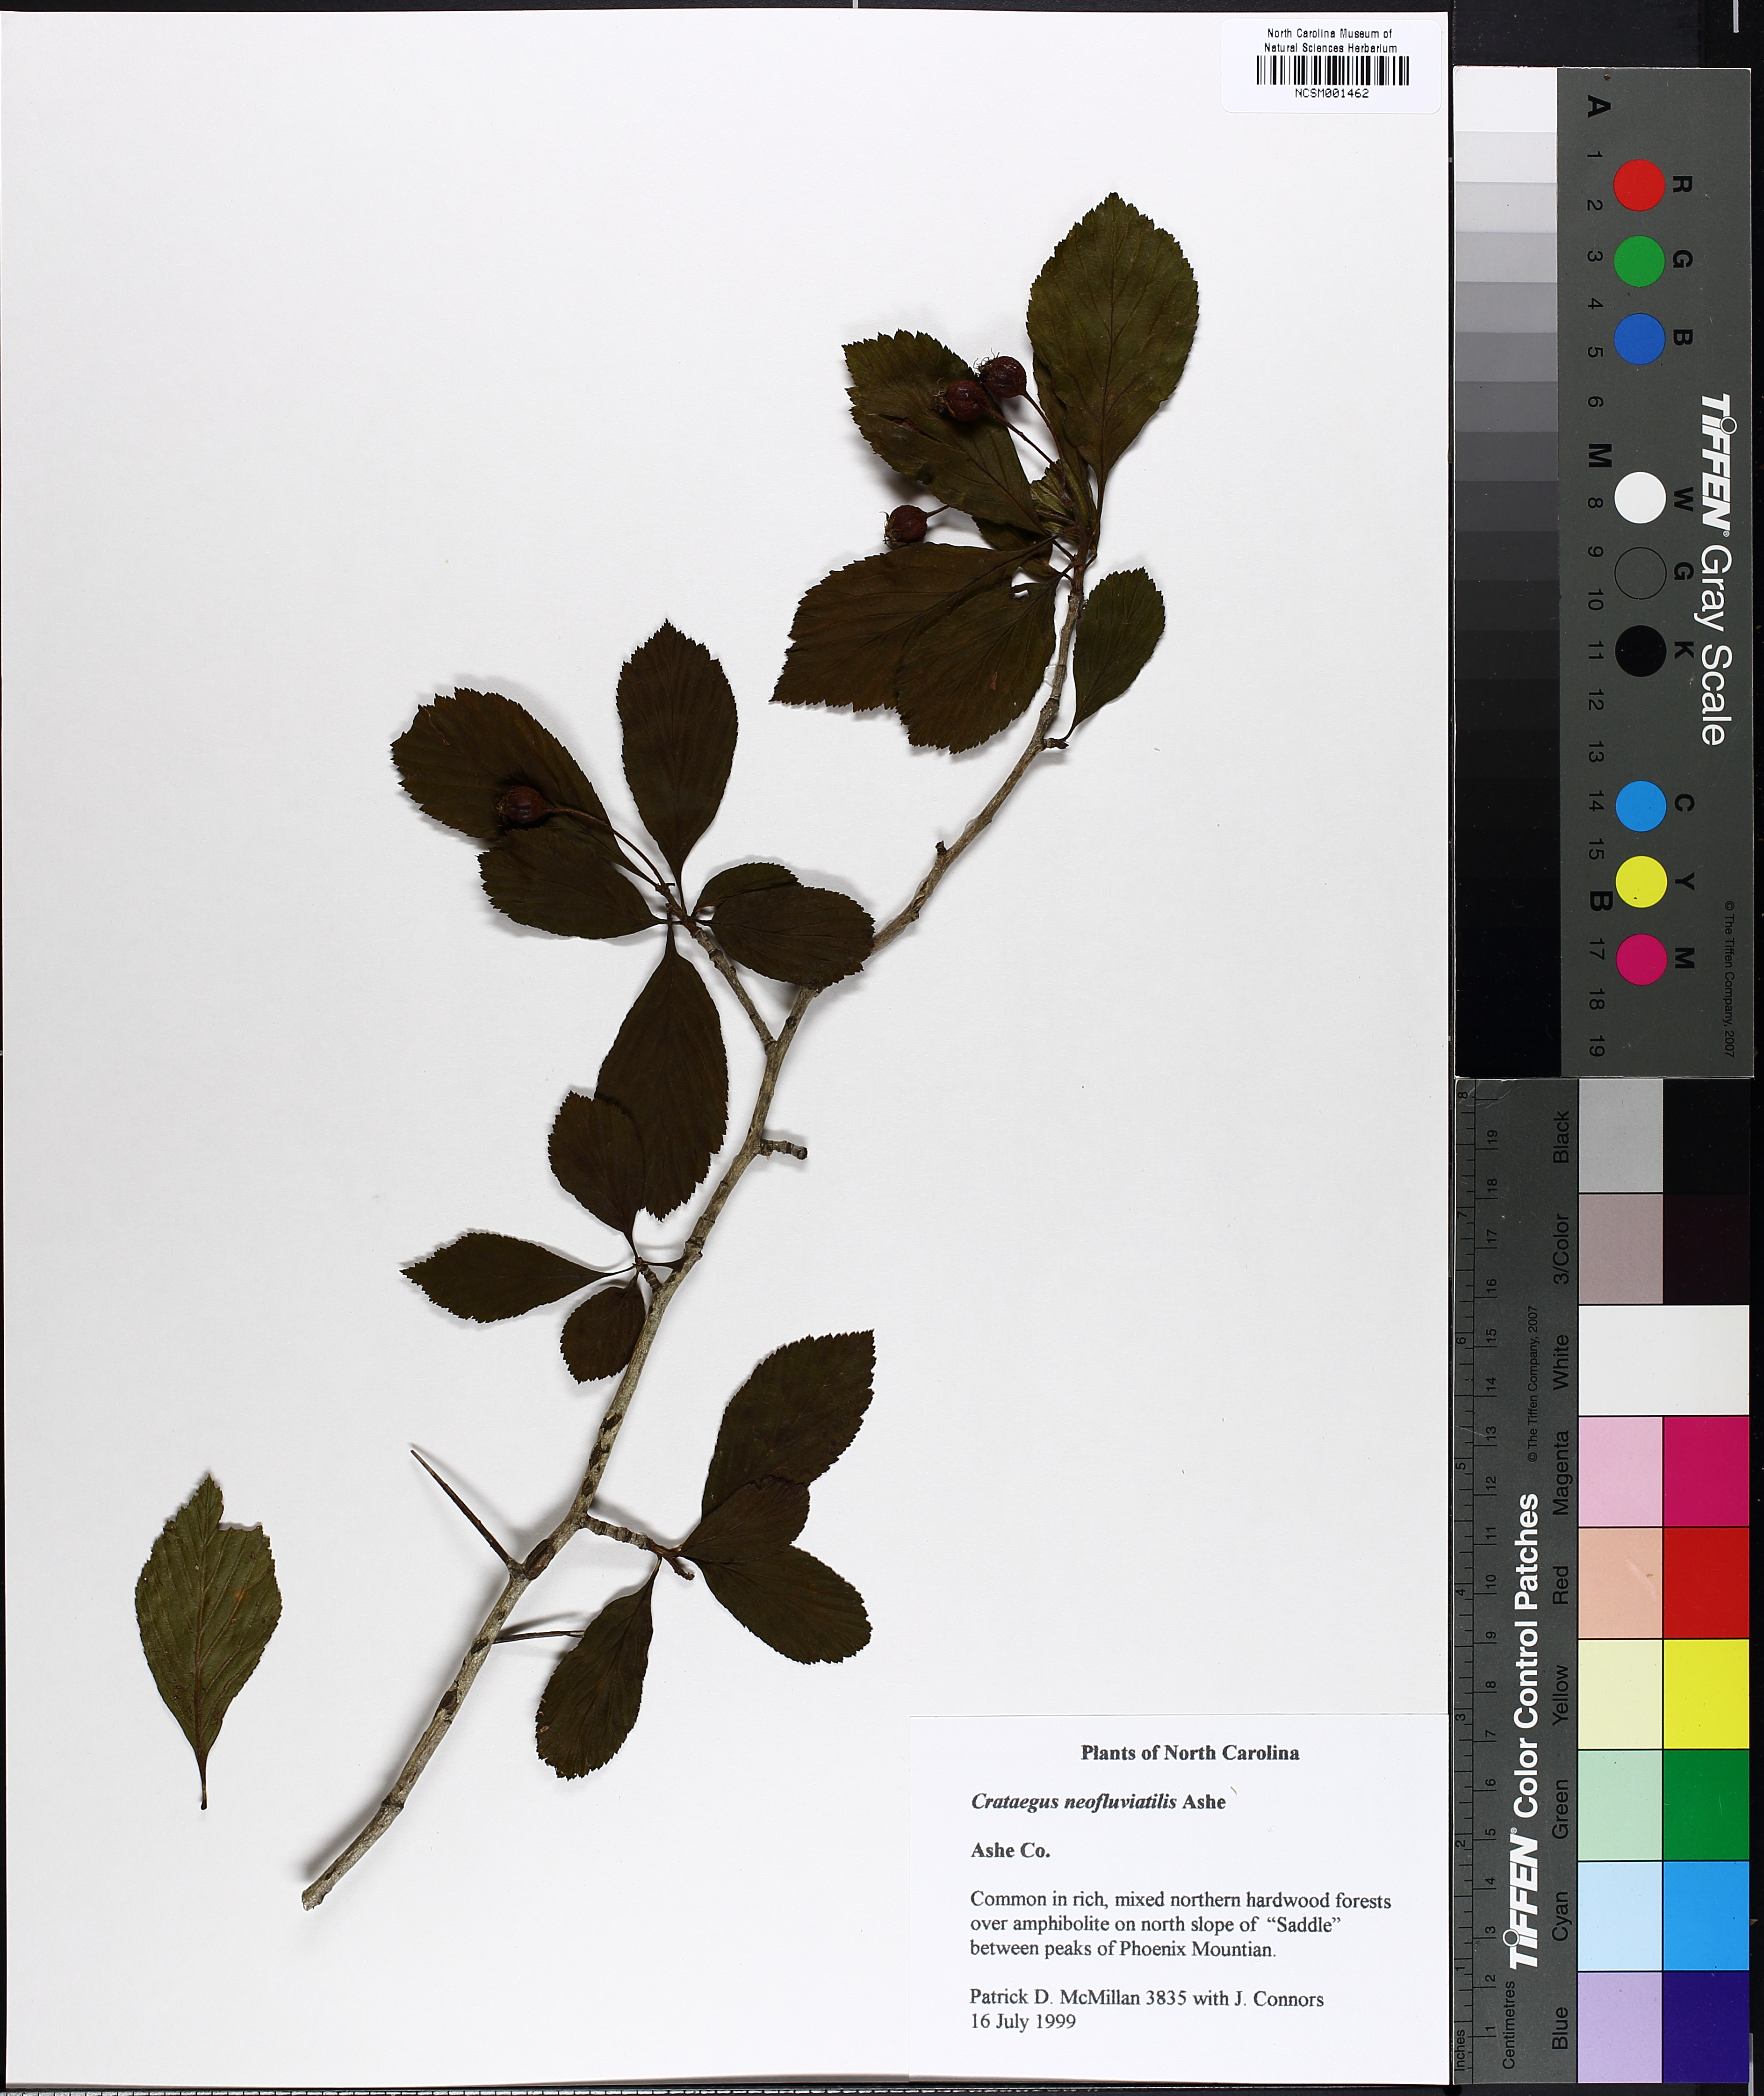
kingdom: Plantae
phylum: Tracheophyta
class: Magnoliopsida
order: Rosales
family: Rosaceae
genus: Crataegus
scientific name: Crataegus succulenta
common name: Fleshy hawthorn
